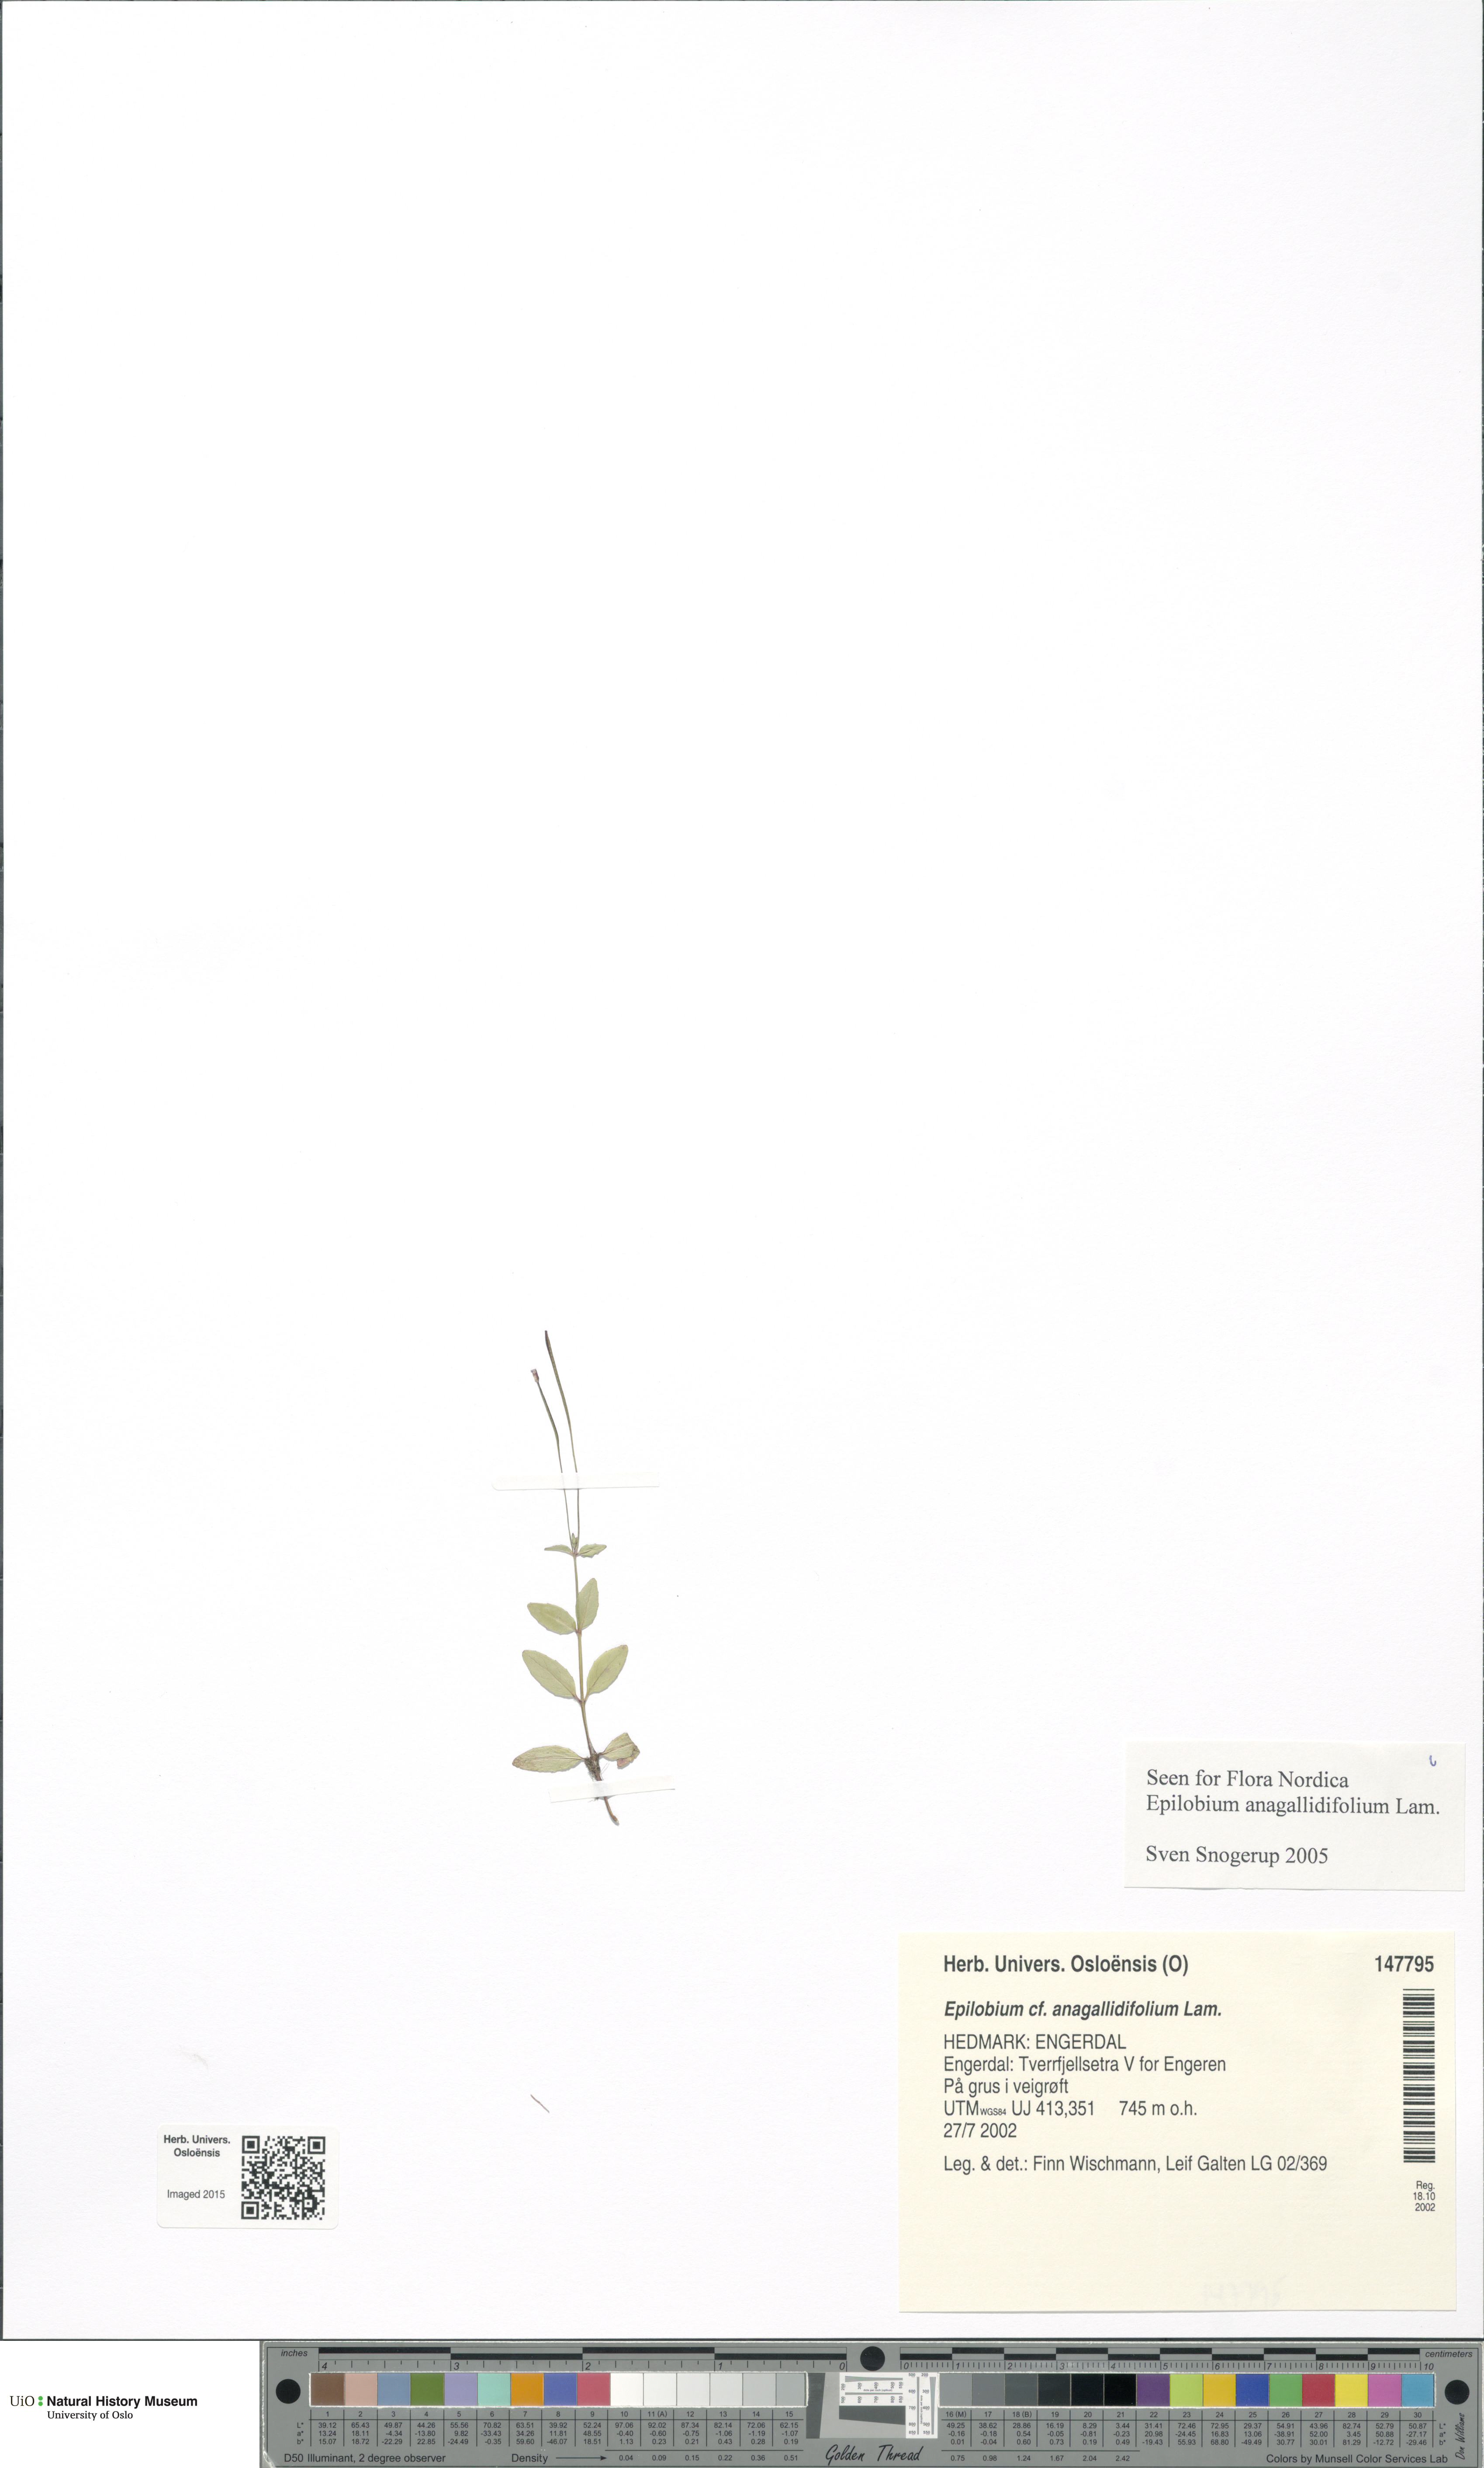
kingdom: Plantae
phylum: Tracheophyta
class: Magnoliopsida
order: Myrtales
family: Onagraceae
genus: Epilobium
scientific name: Epilobium anagallidifolium
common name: Alpine willowherb
